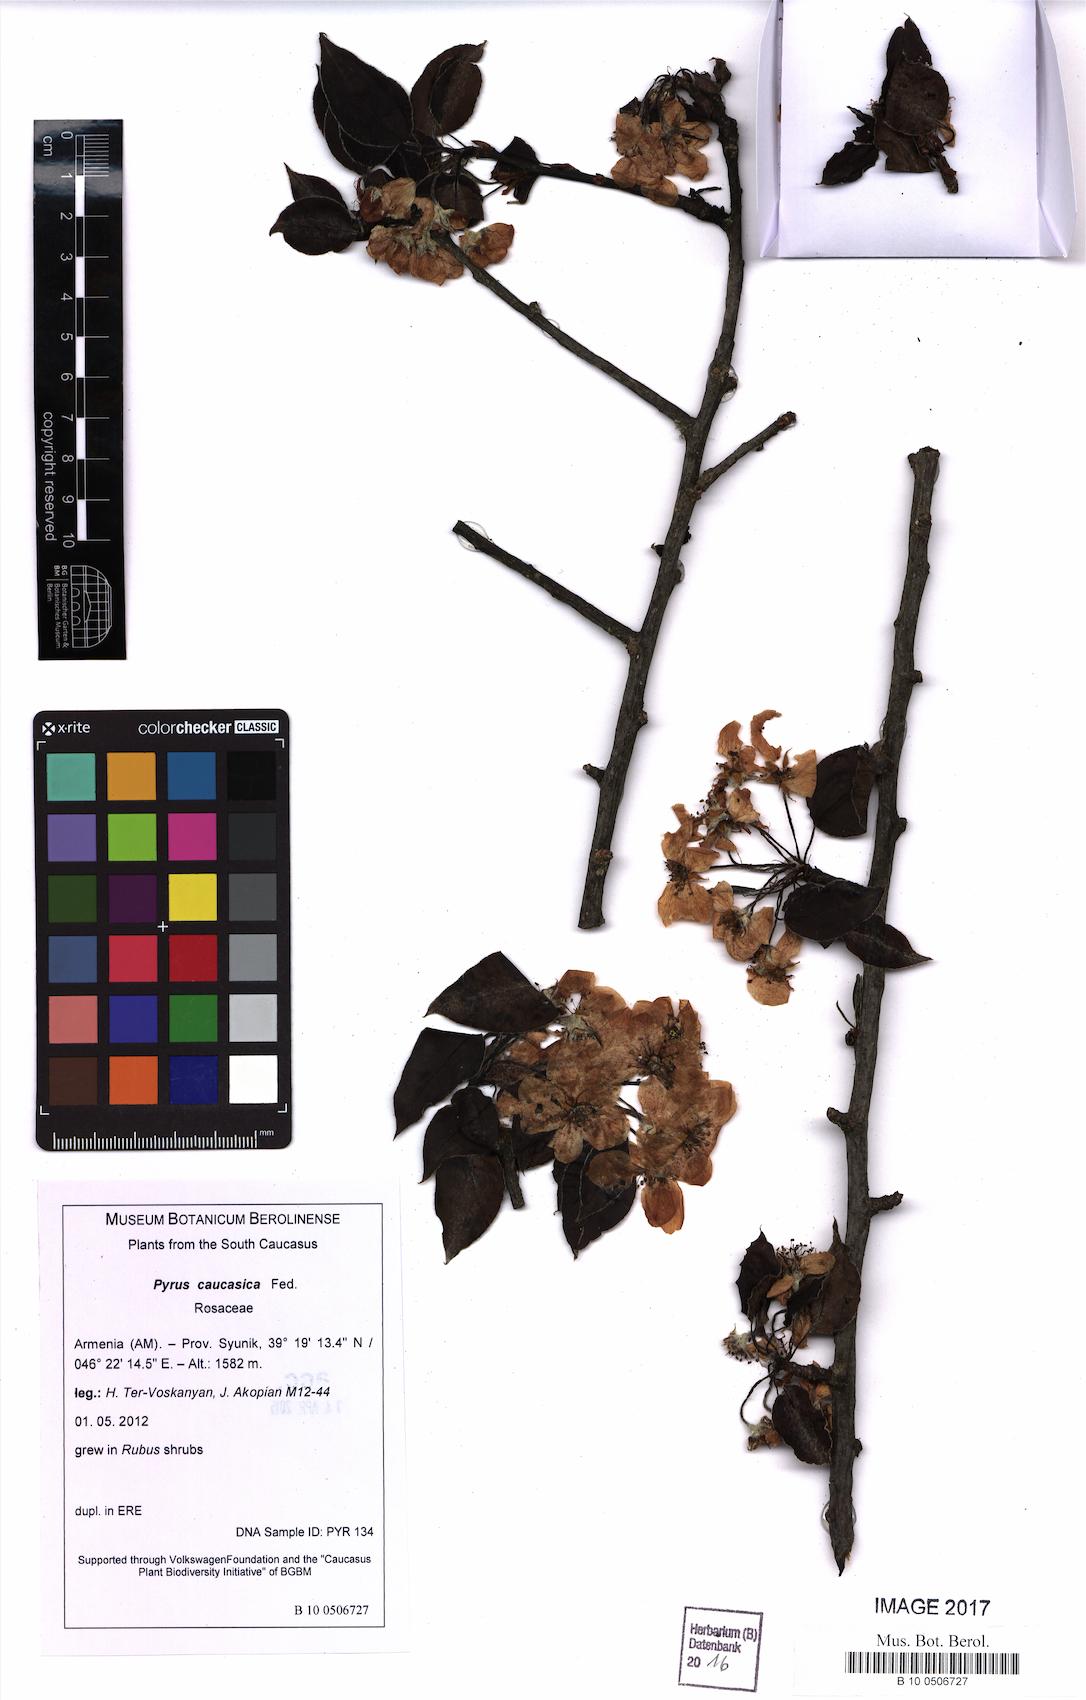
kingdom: Plantae
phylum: Tracheophyta
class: Magnoliopsida
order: Rosales
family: Rosaceae
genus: Pyrus
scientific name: Pyrus communis
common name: Pear
